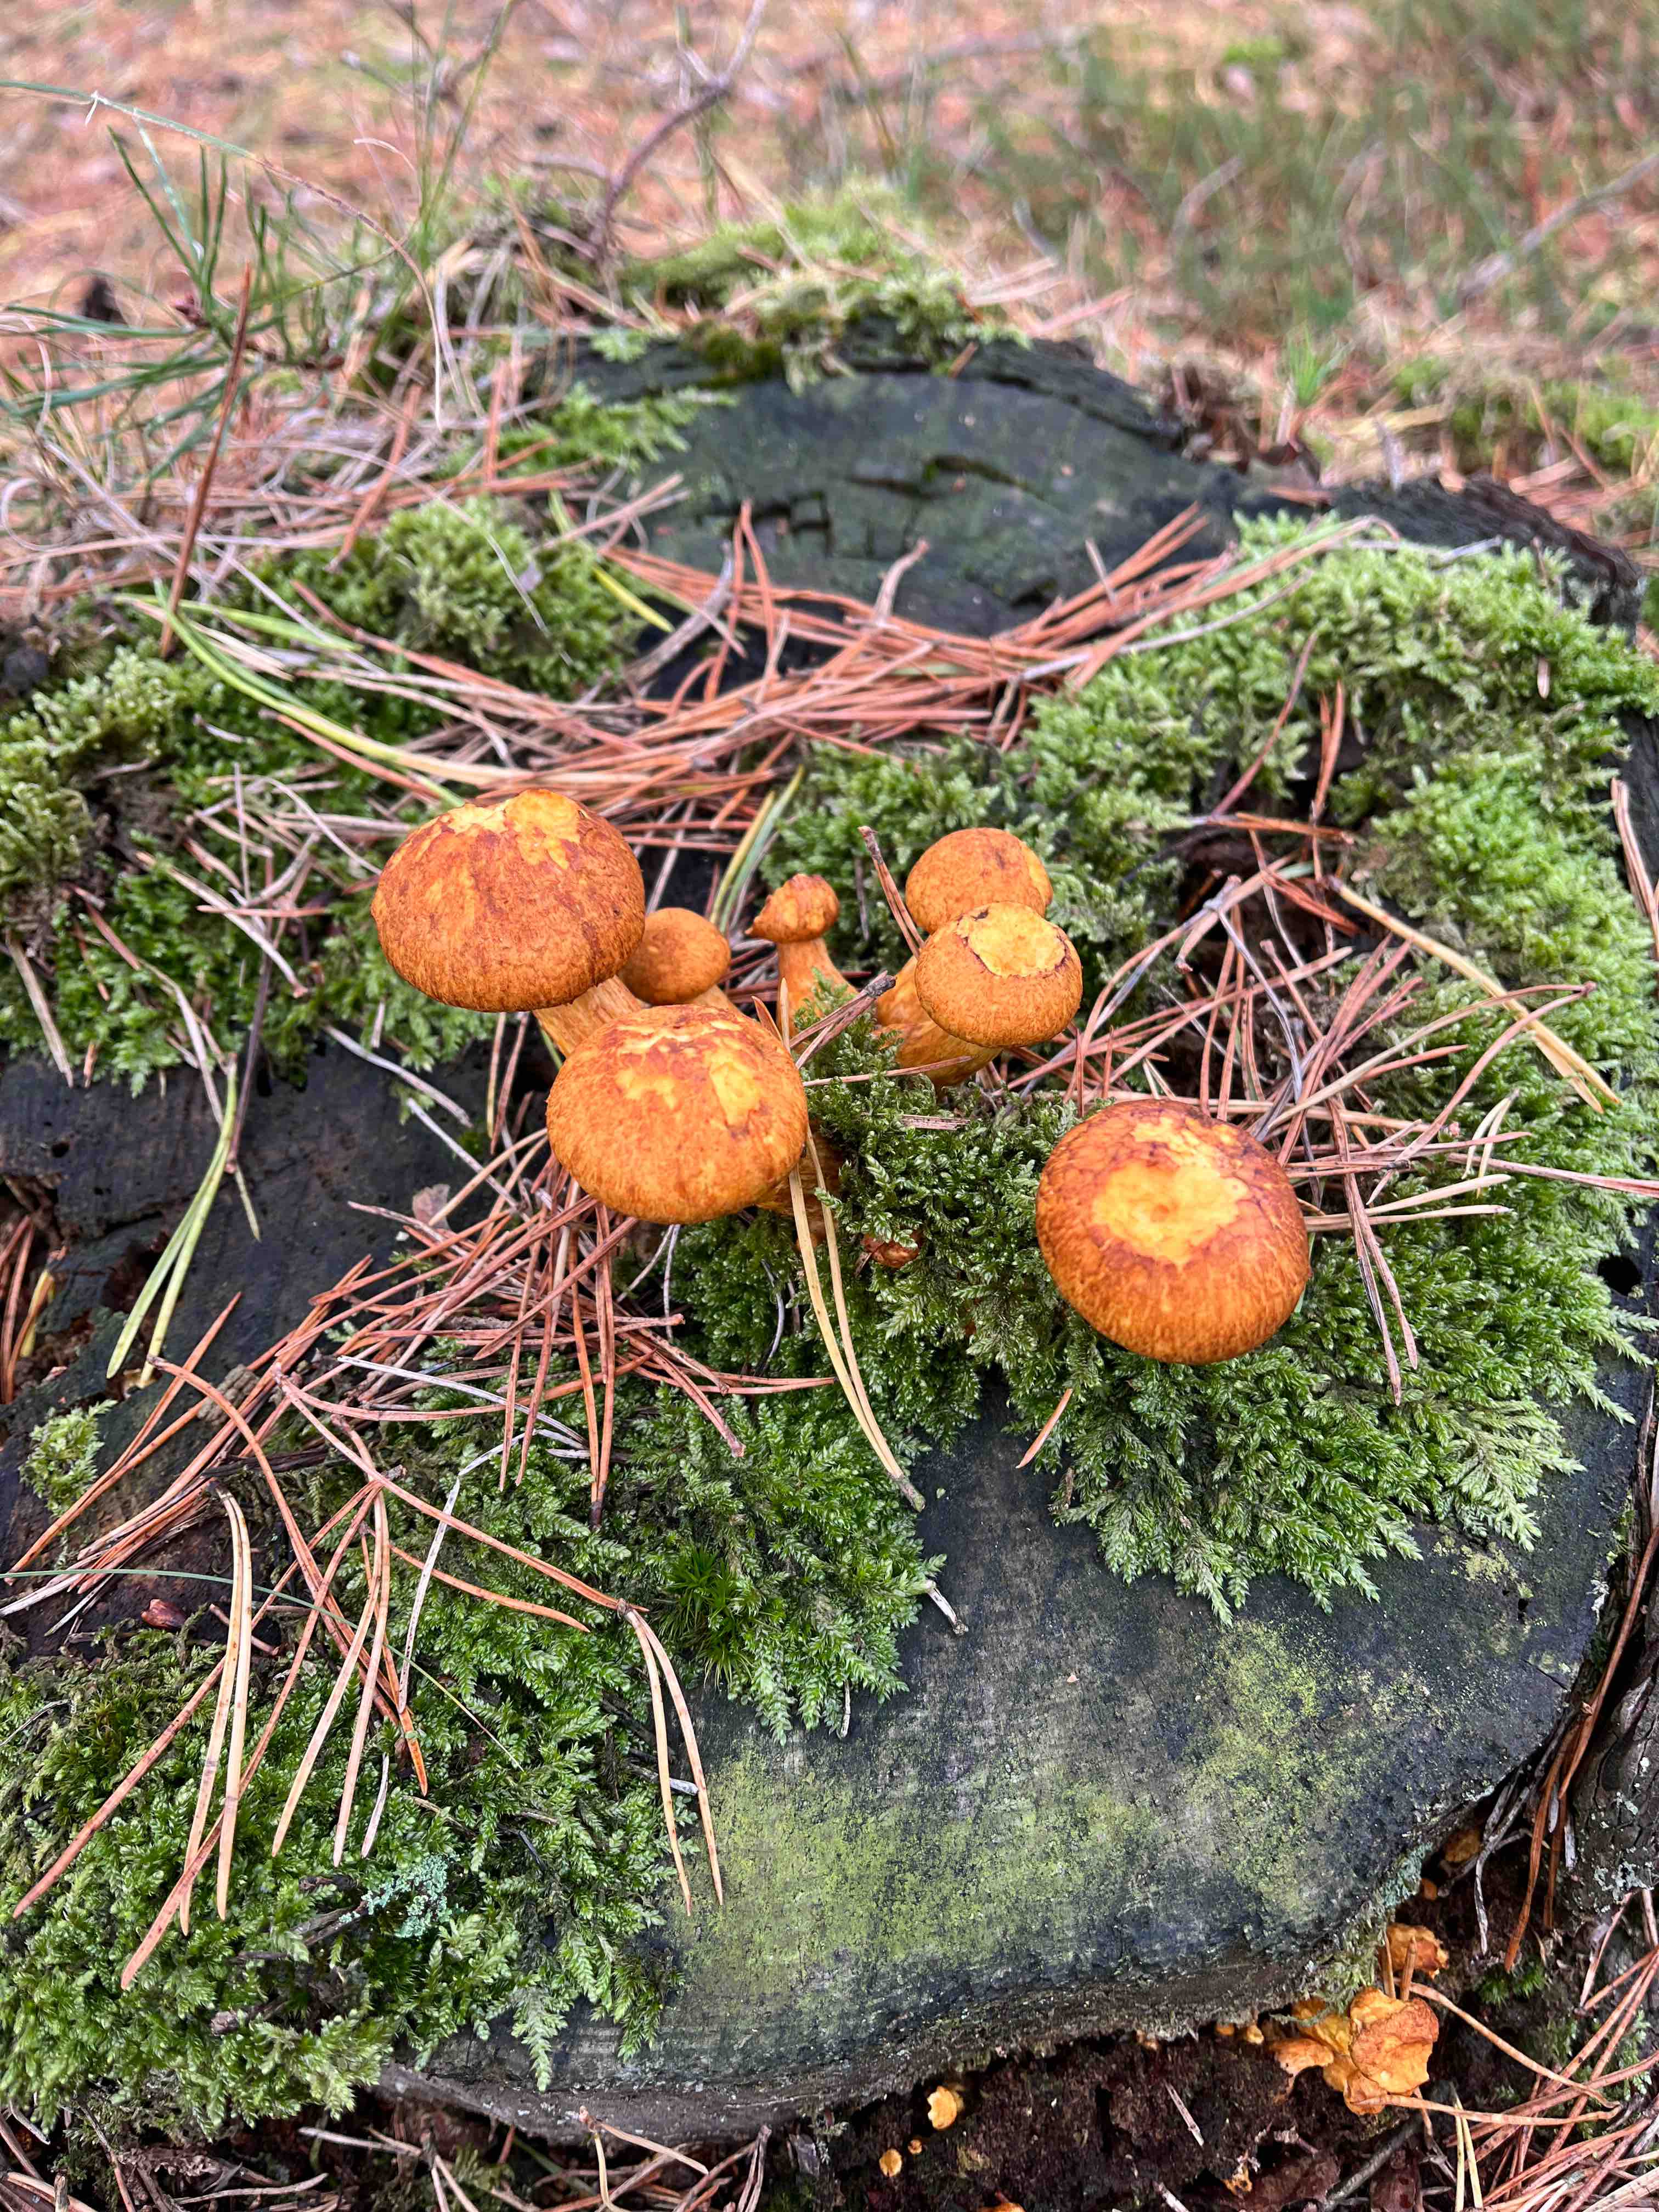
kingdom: Fungi
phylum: Basidiomycota
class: Agaricomycetes
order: Agaricales
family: Hymenogastraceae
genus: Gymnopilus
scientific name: Gymnopilus spectabilis
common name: fibret flammehat
